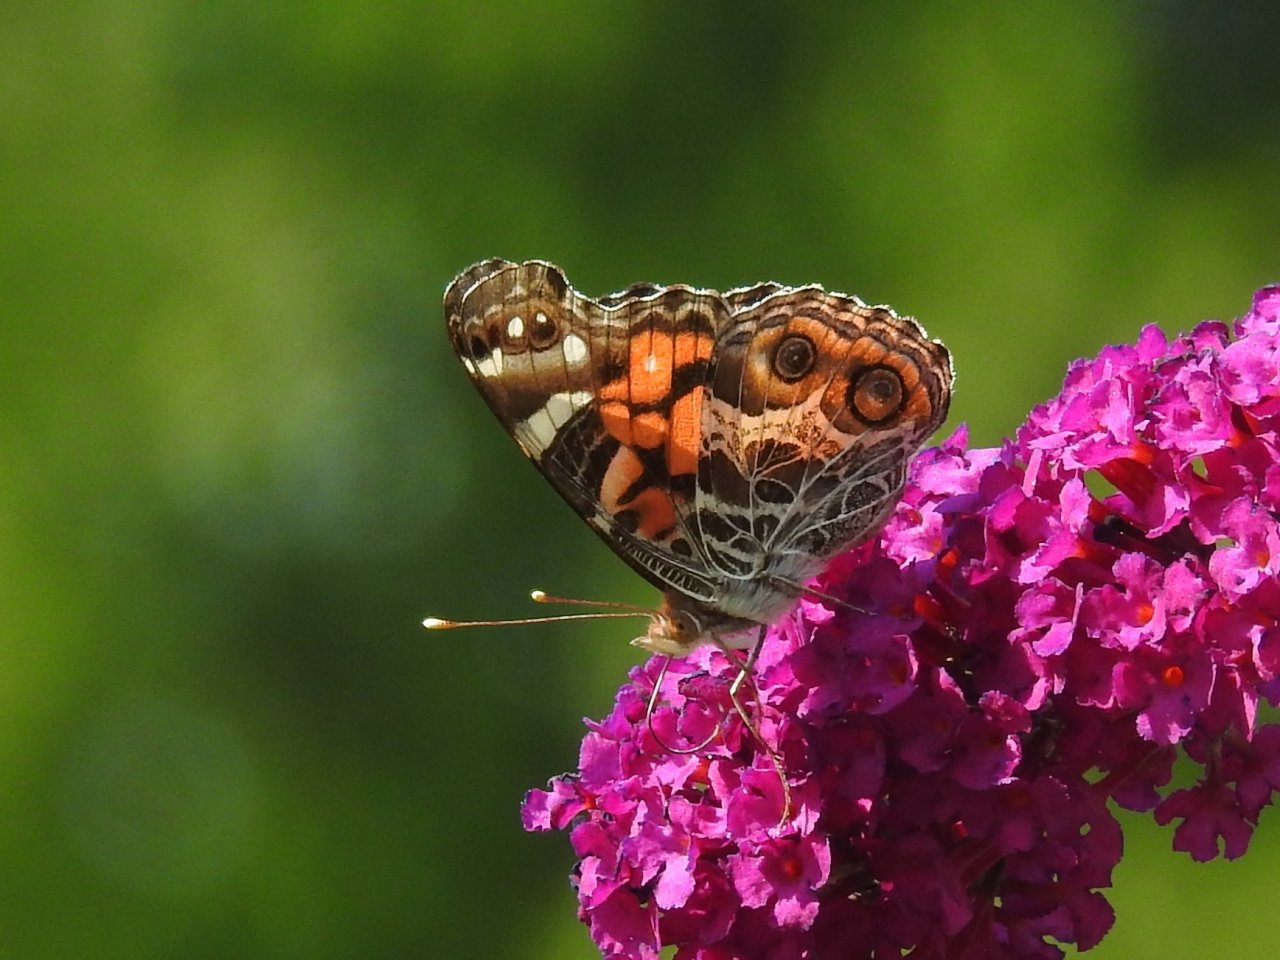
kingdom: Animalia
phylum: Arthropoda
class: Insecta
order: Lepidoptera
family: Nymphalidae
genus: Vanessa
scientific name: Vanessa virginiensis
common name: American Lady
